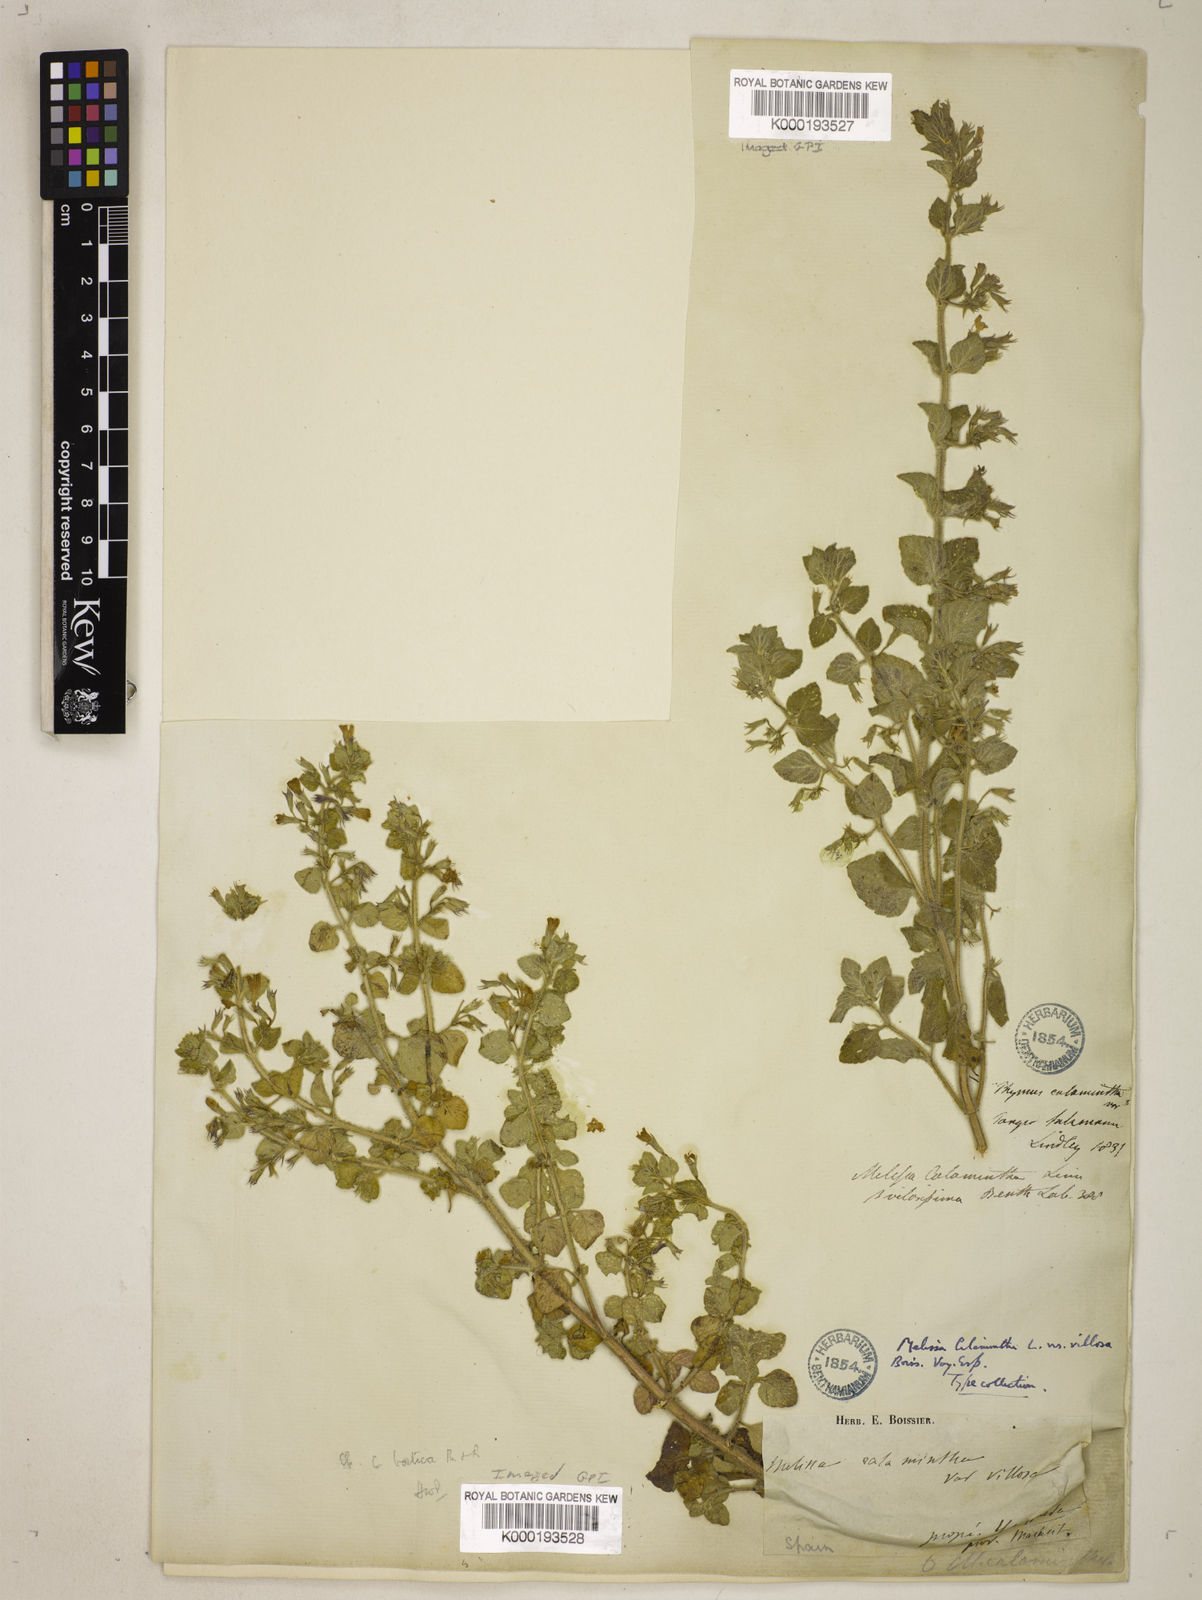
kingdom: Plantae
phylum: Tracheophyta
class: Magnoliopsida
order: Lamiales
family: Lamiaceae
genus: Clinopodium
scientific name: Clinopodium nepeta
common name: Lesser calamint
